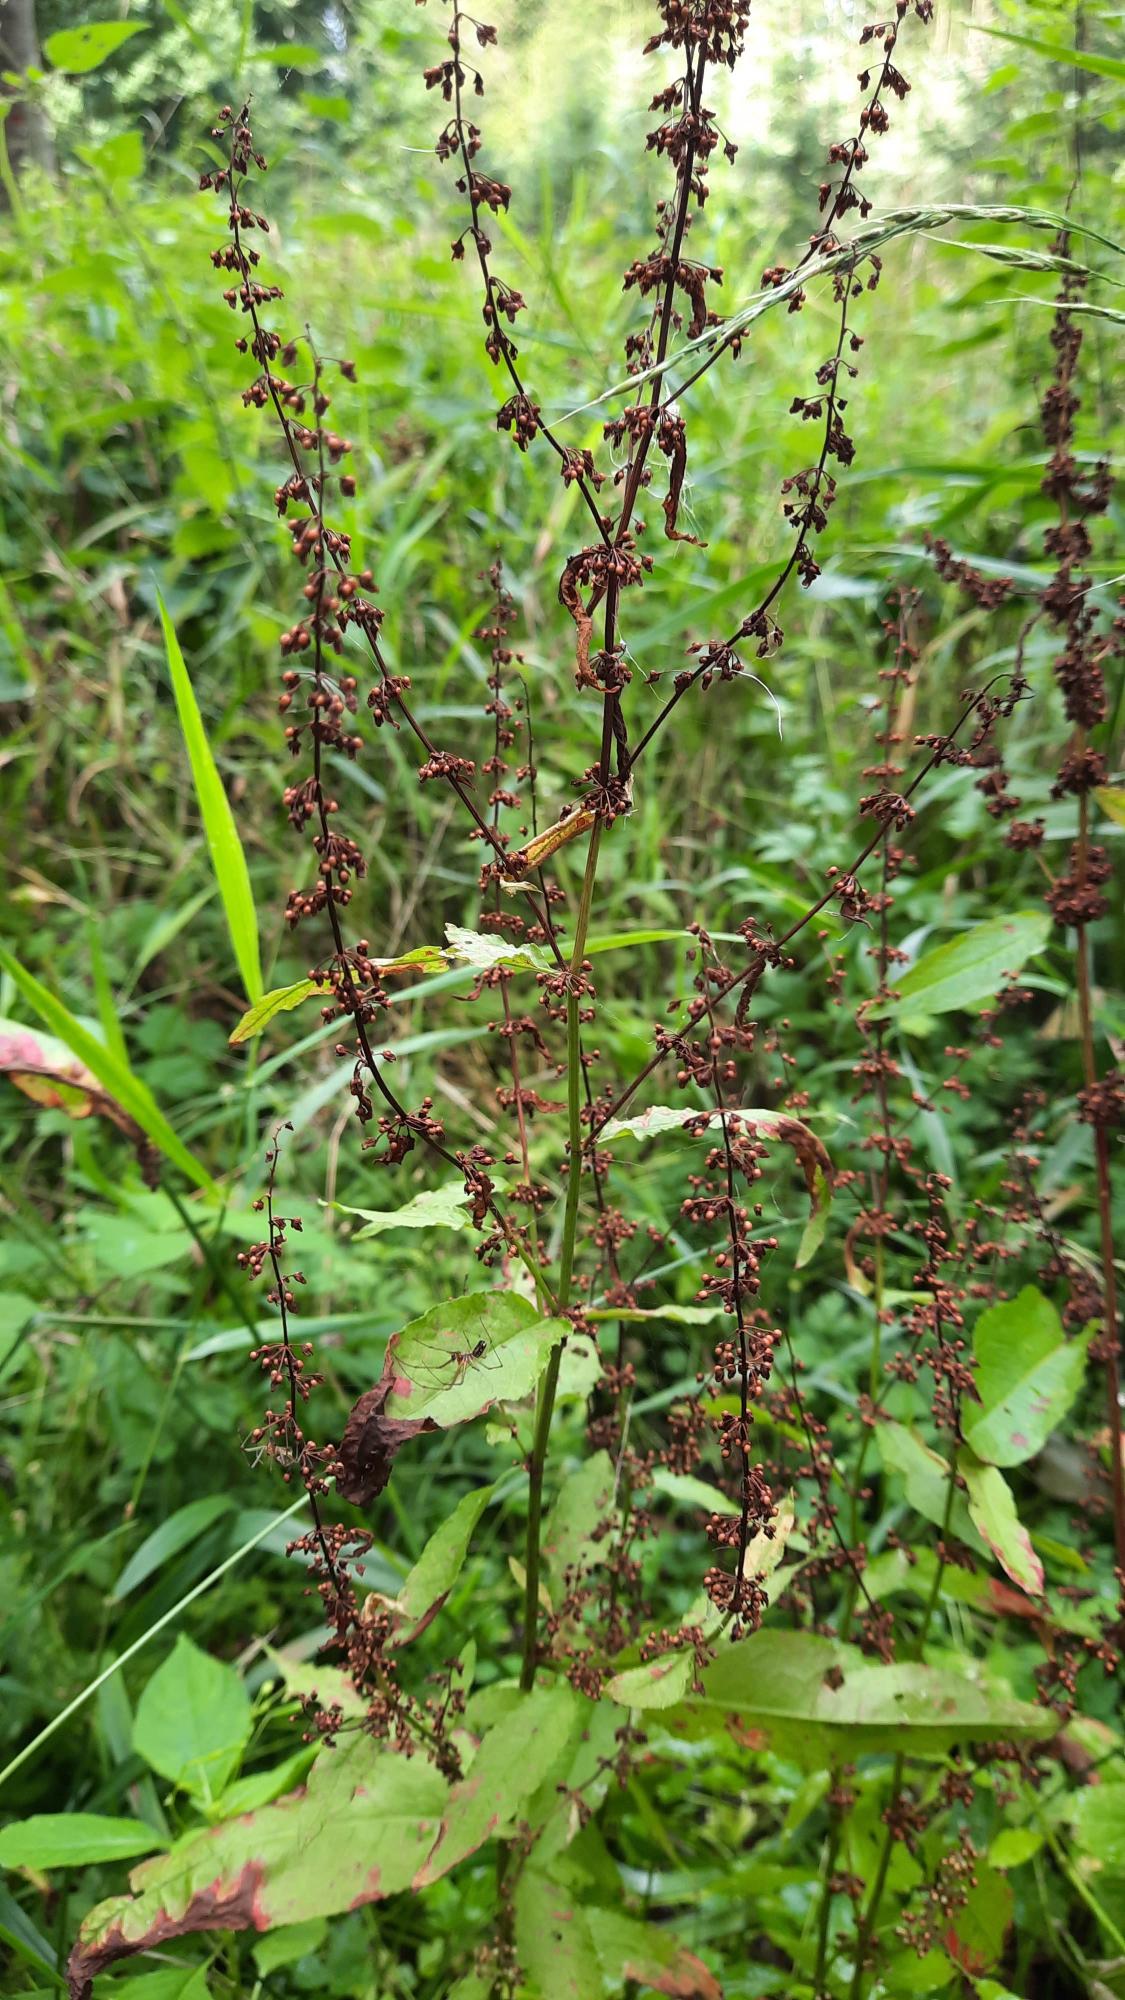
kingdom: Plantae
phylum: Tracheophyta
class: Magnoliopsida
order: Caryophyllales
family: Polygonaceae
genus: Rumex
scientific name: Rumex sanguineus
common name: Skov-skræppe
